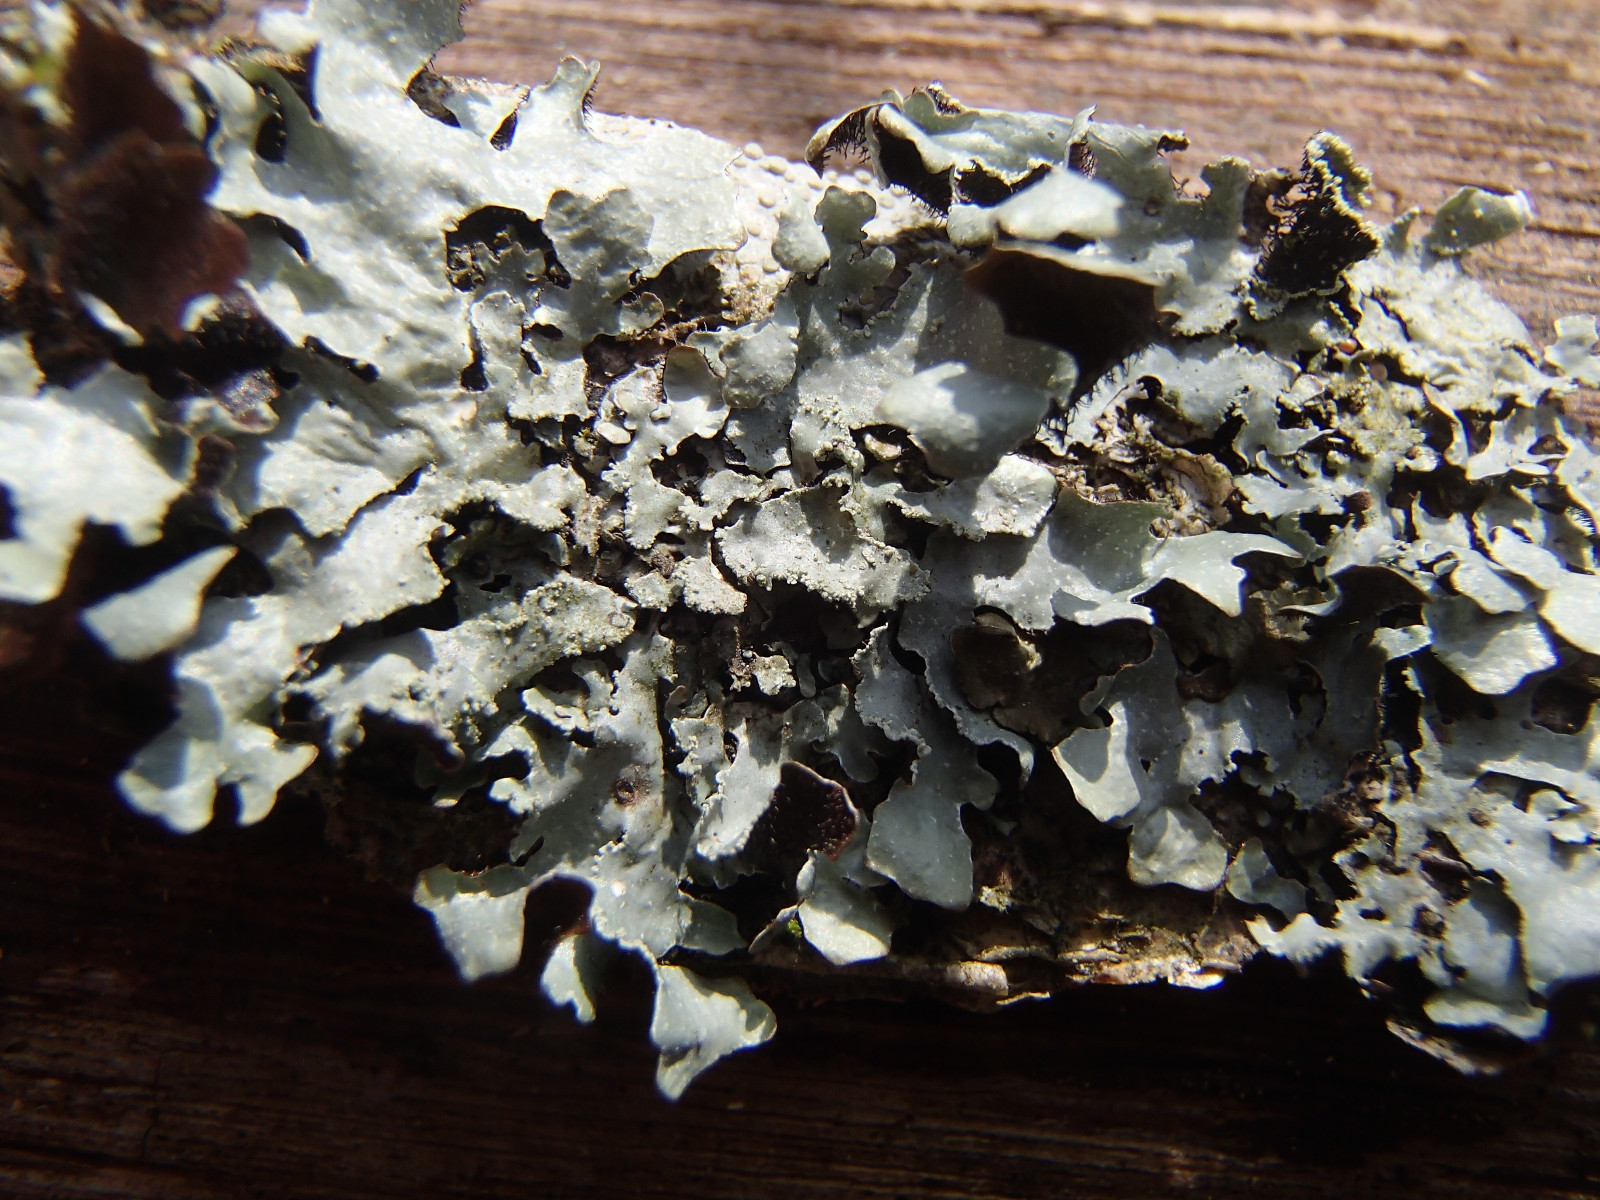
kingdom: Fungi
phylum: Ascomycota
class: Lecanoromycetes
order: Lecanorales
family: Parmeliaceae
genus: Parmelia
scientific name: Parmelia serrana
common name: spansk skållav
